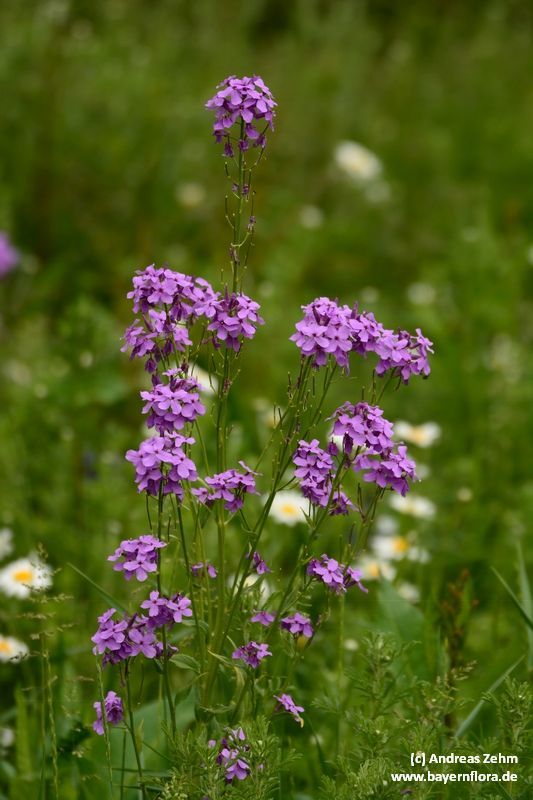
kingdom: Plantae
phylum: Tracheophyta
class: Magnoliopsida
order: Brassicales
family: Brassicaceae
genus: Matthiola
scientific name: Matthiola incana
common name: Hoary stock
